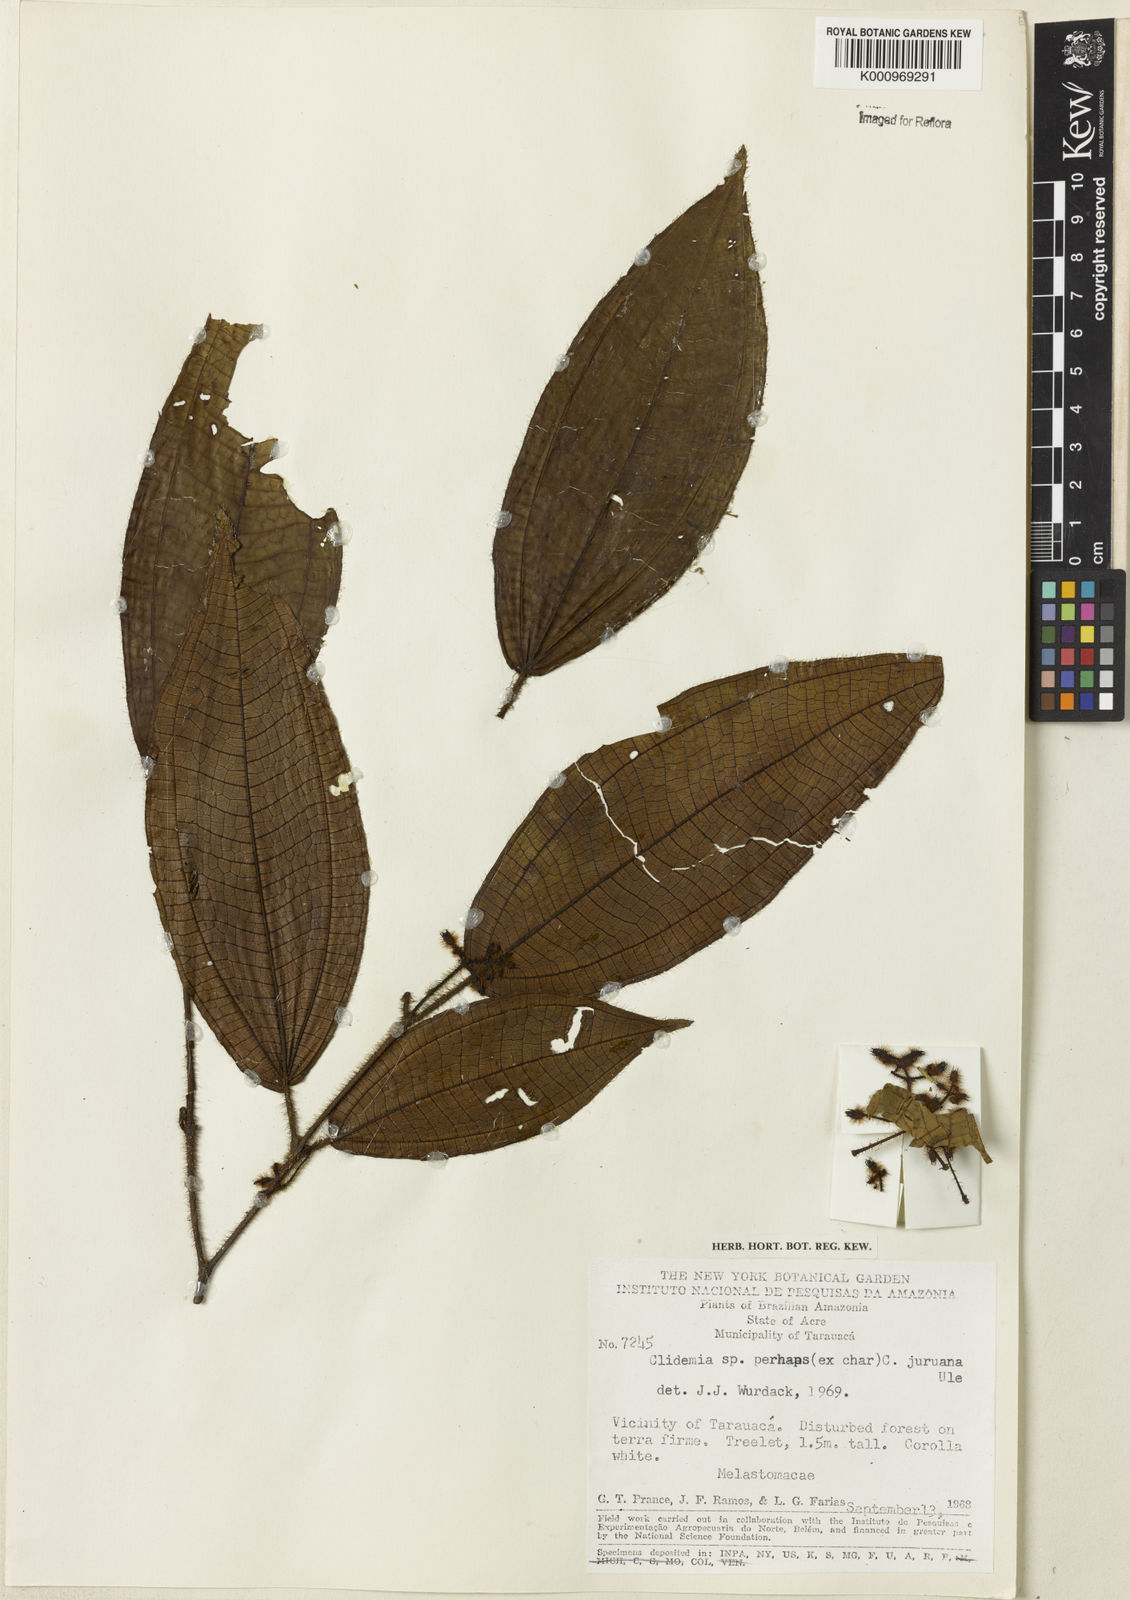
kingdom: Plantae
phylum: Tracheophyta
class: Magnoliopsida
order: Myrtales
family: Melastomataceae
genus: Miconia
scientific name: Miconia
